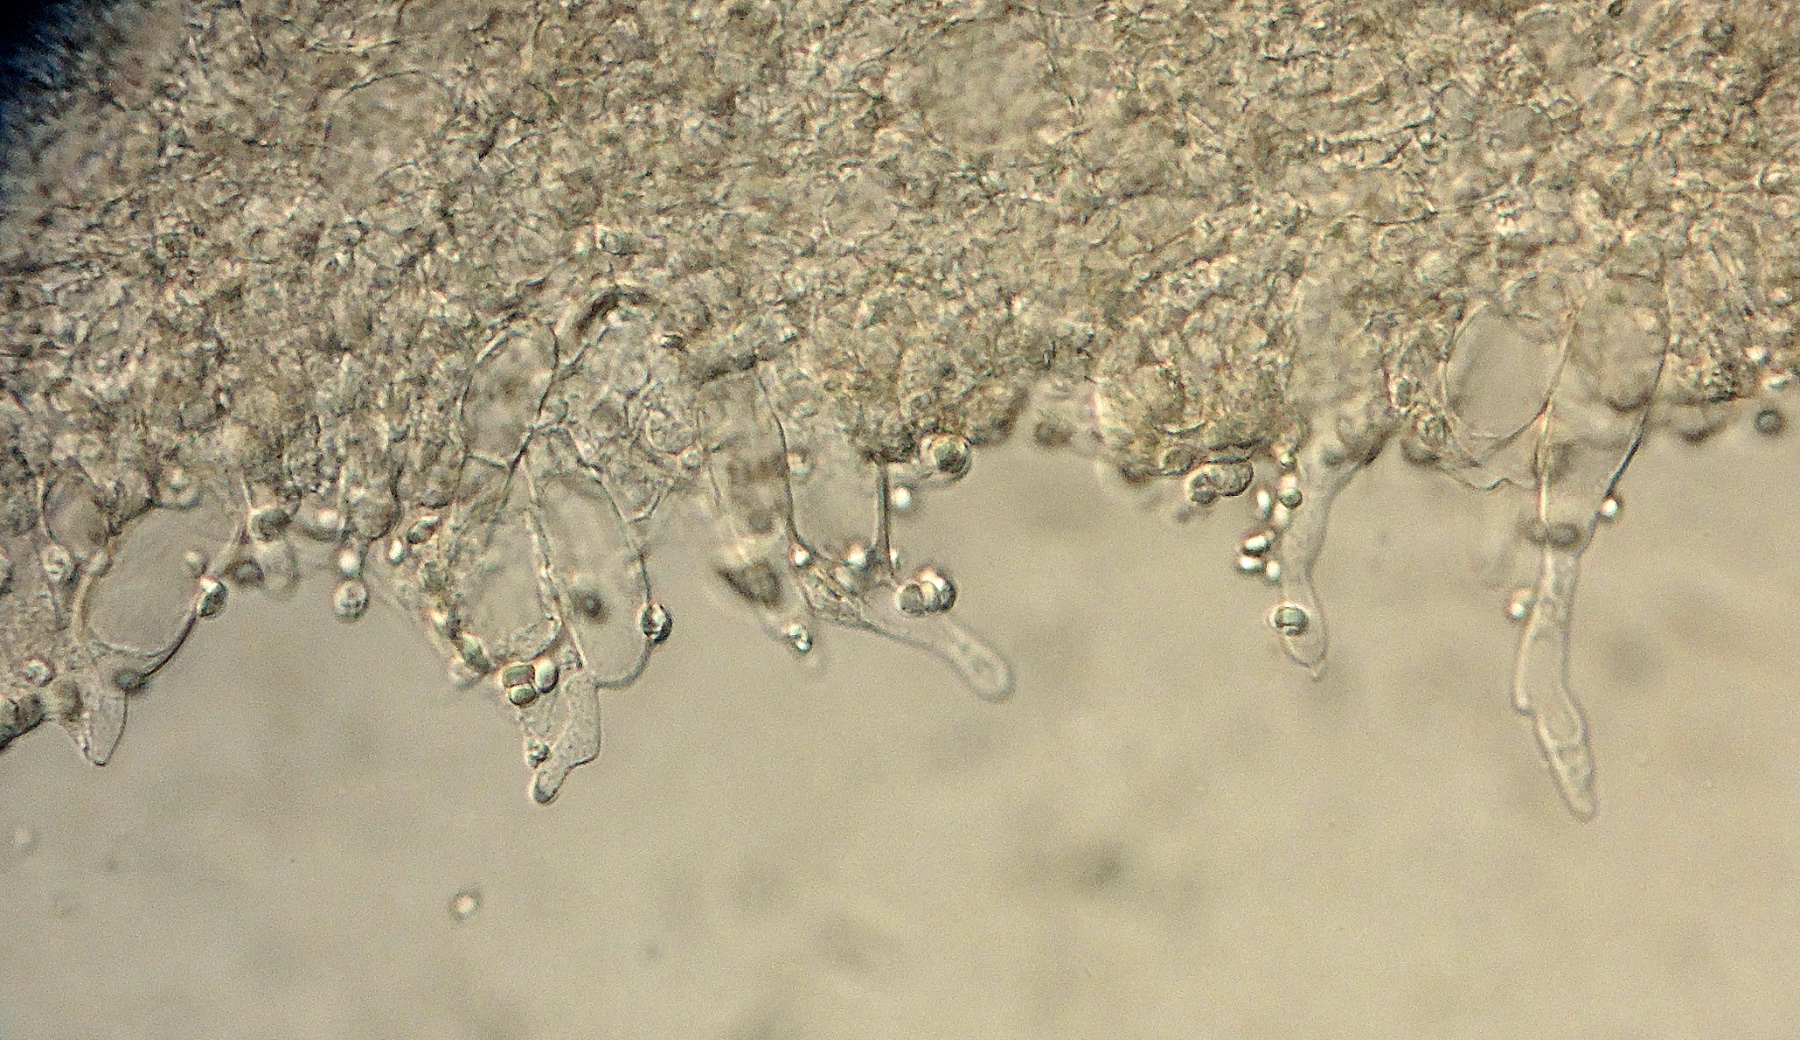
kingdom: Fungi
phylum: Basidiomycota
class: Agaricomycetes
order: Agaricales
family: Mycenaceae
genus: Mycena
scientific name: Mycena cretata
